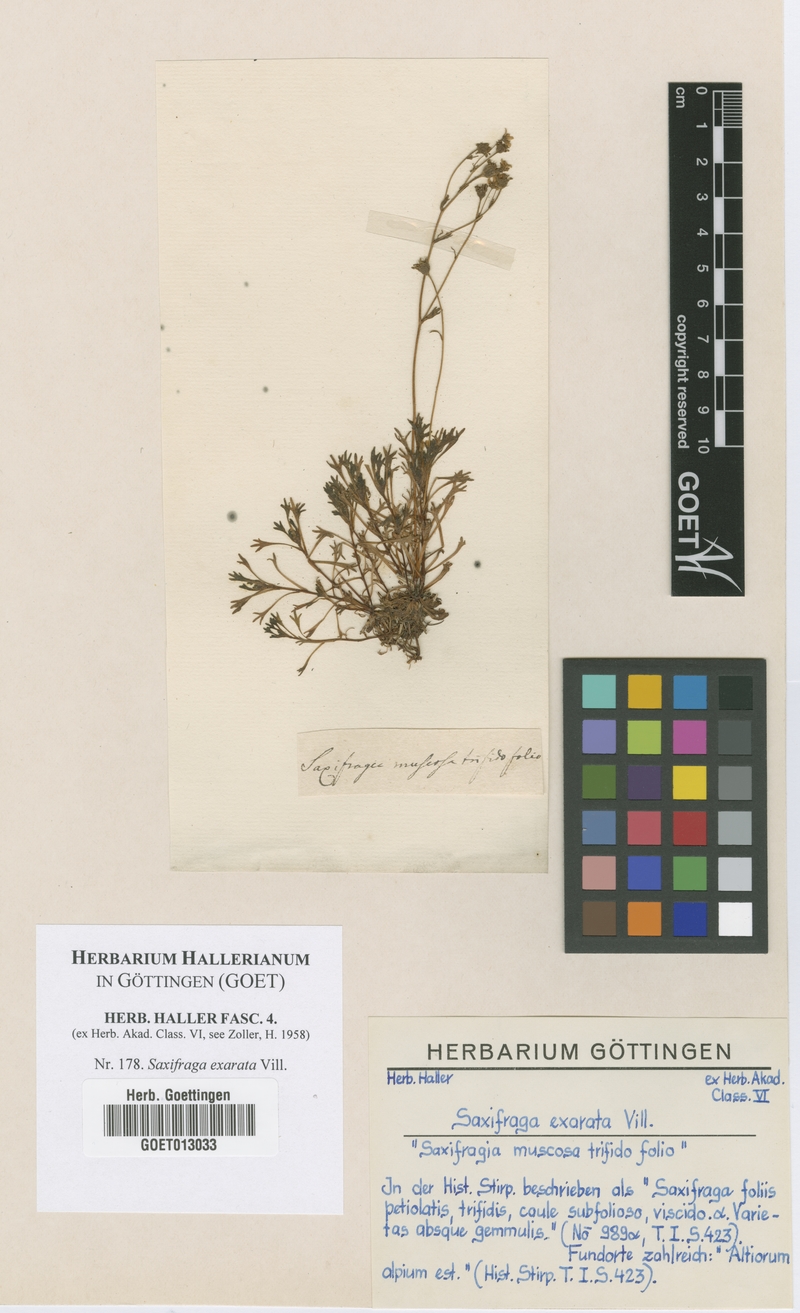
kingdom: Plantae
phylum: Tracheophyta
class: Magnoliopsida
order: Saxifragales
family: Saxifragaceae
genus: Saxifraga
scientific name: Saxifraga exarata
